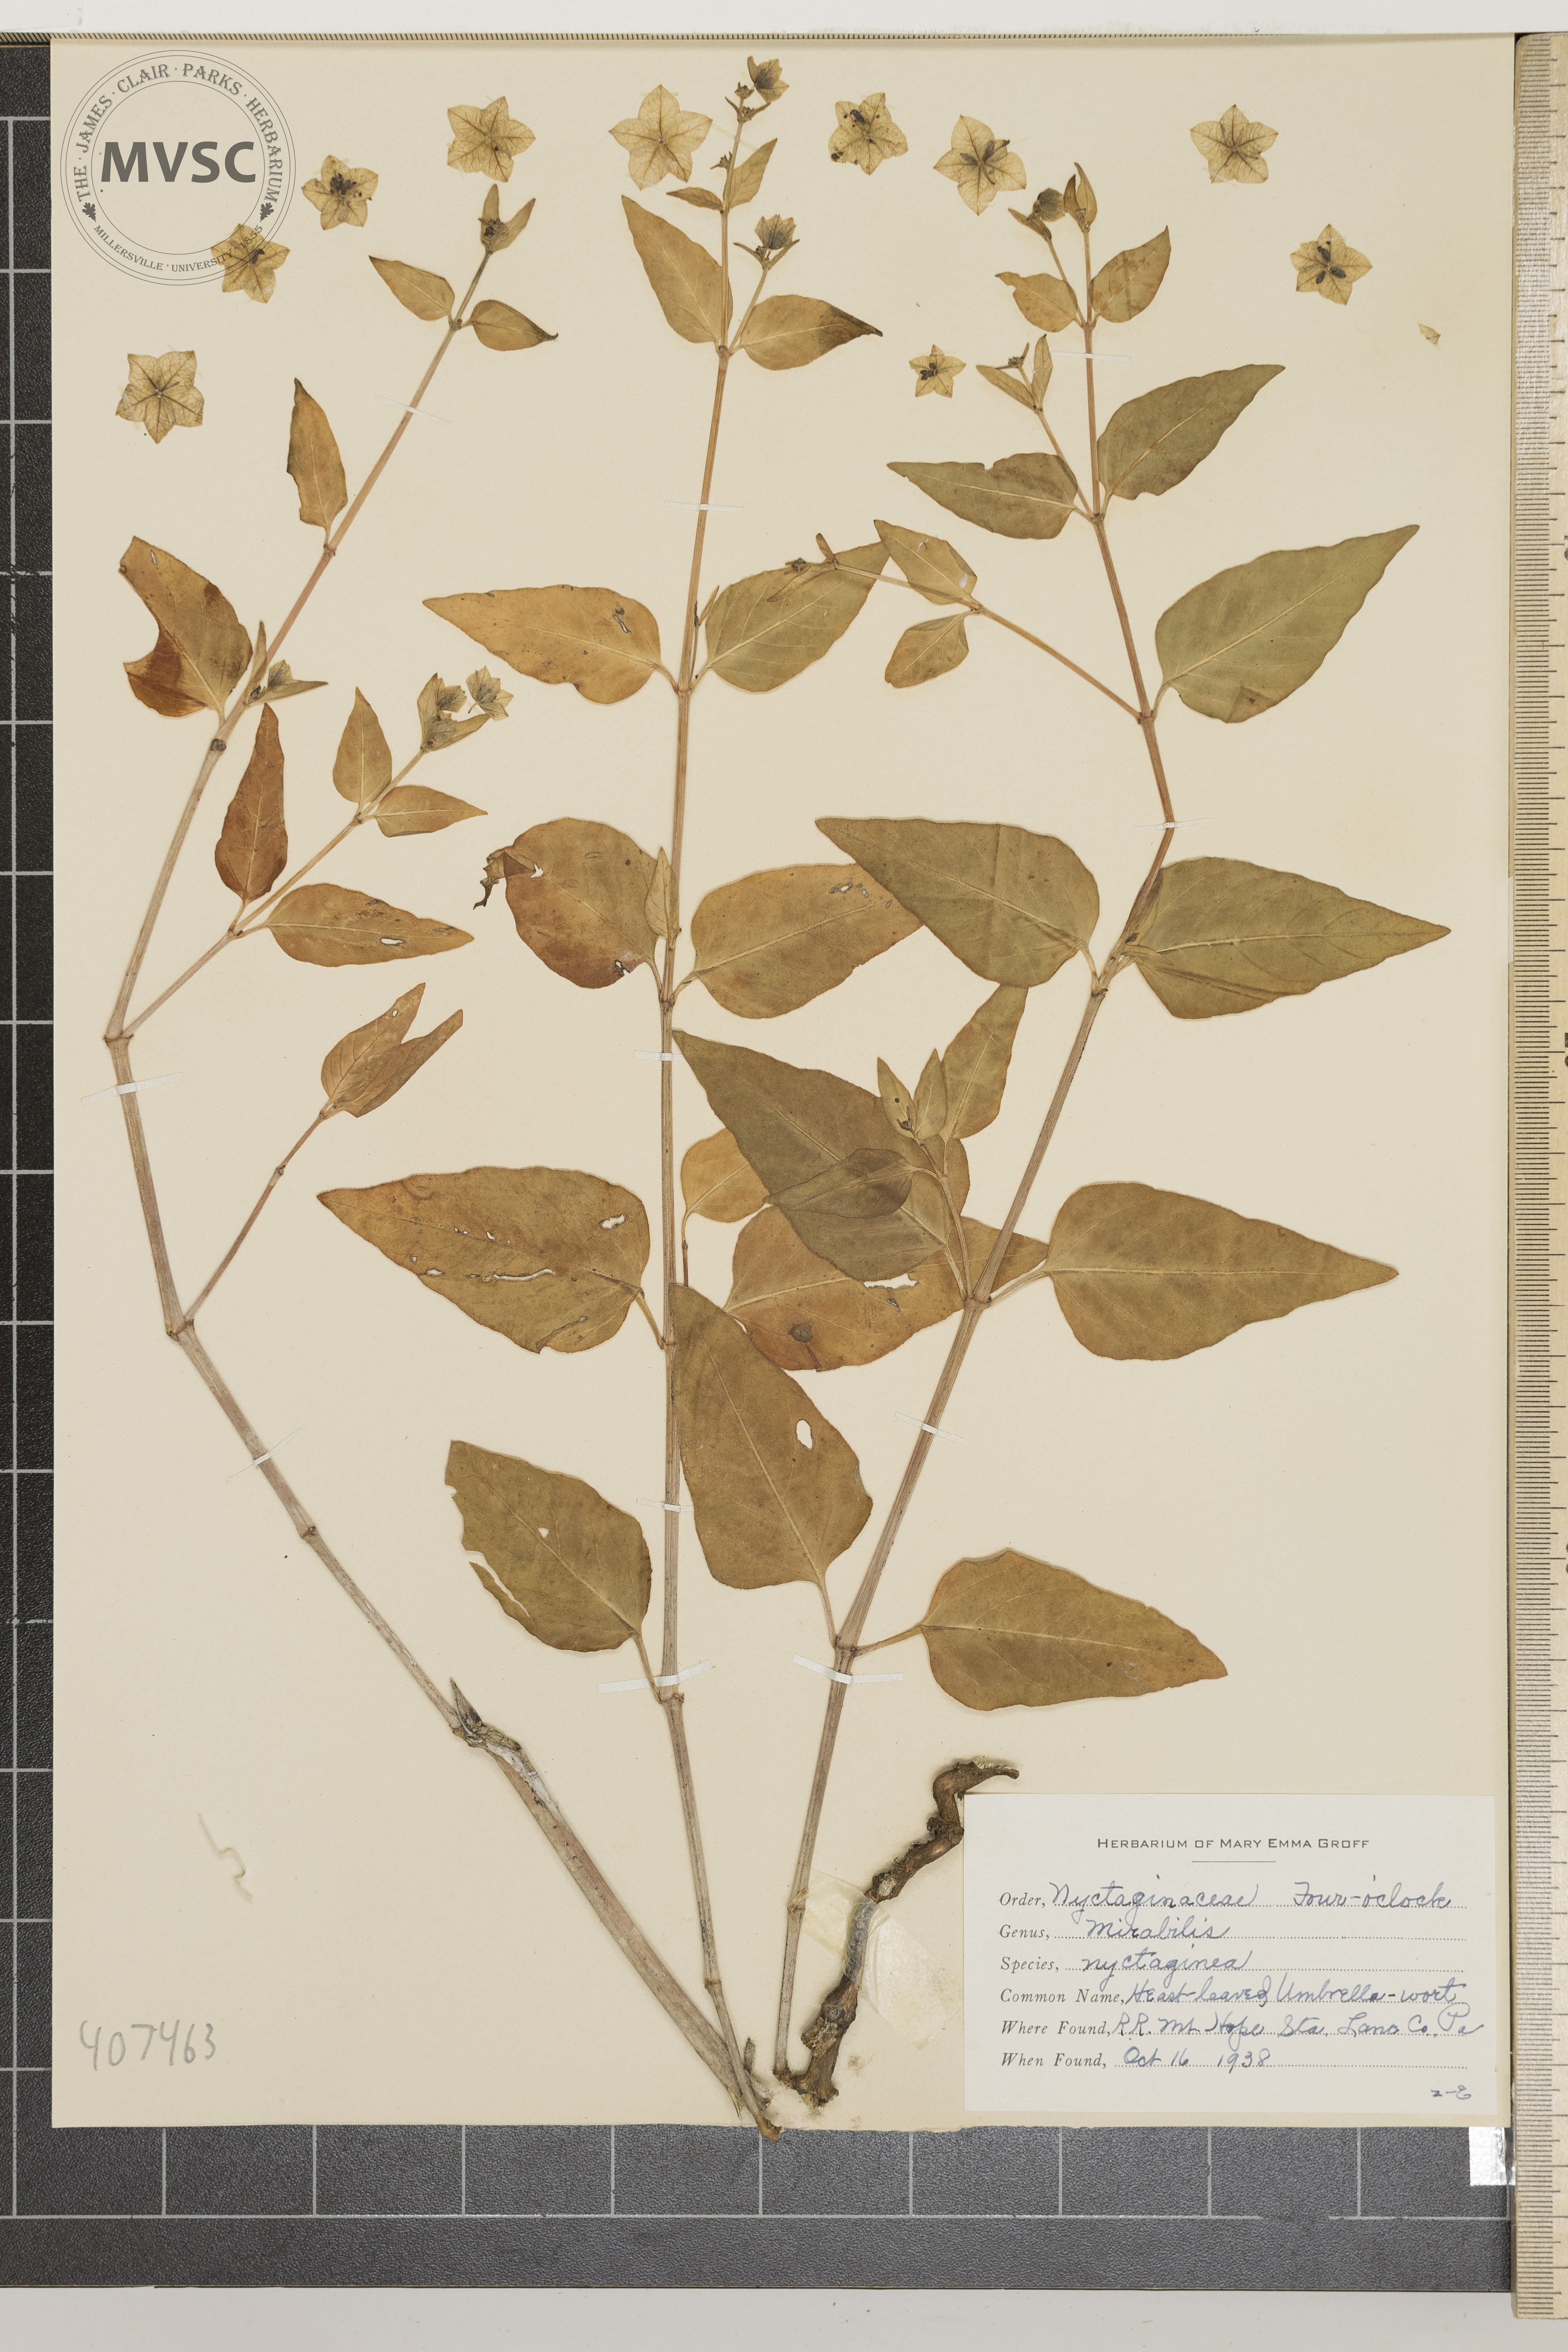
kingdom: Plantae
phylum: Tracheophyta
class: Magnoliopsida
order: Caryophyllales
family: Nyctaginaceae
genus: Mirabilis
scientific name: Mirabilis nyctaginea
